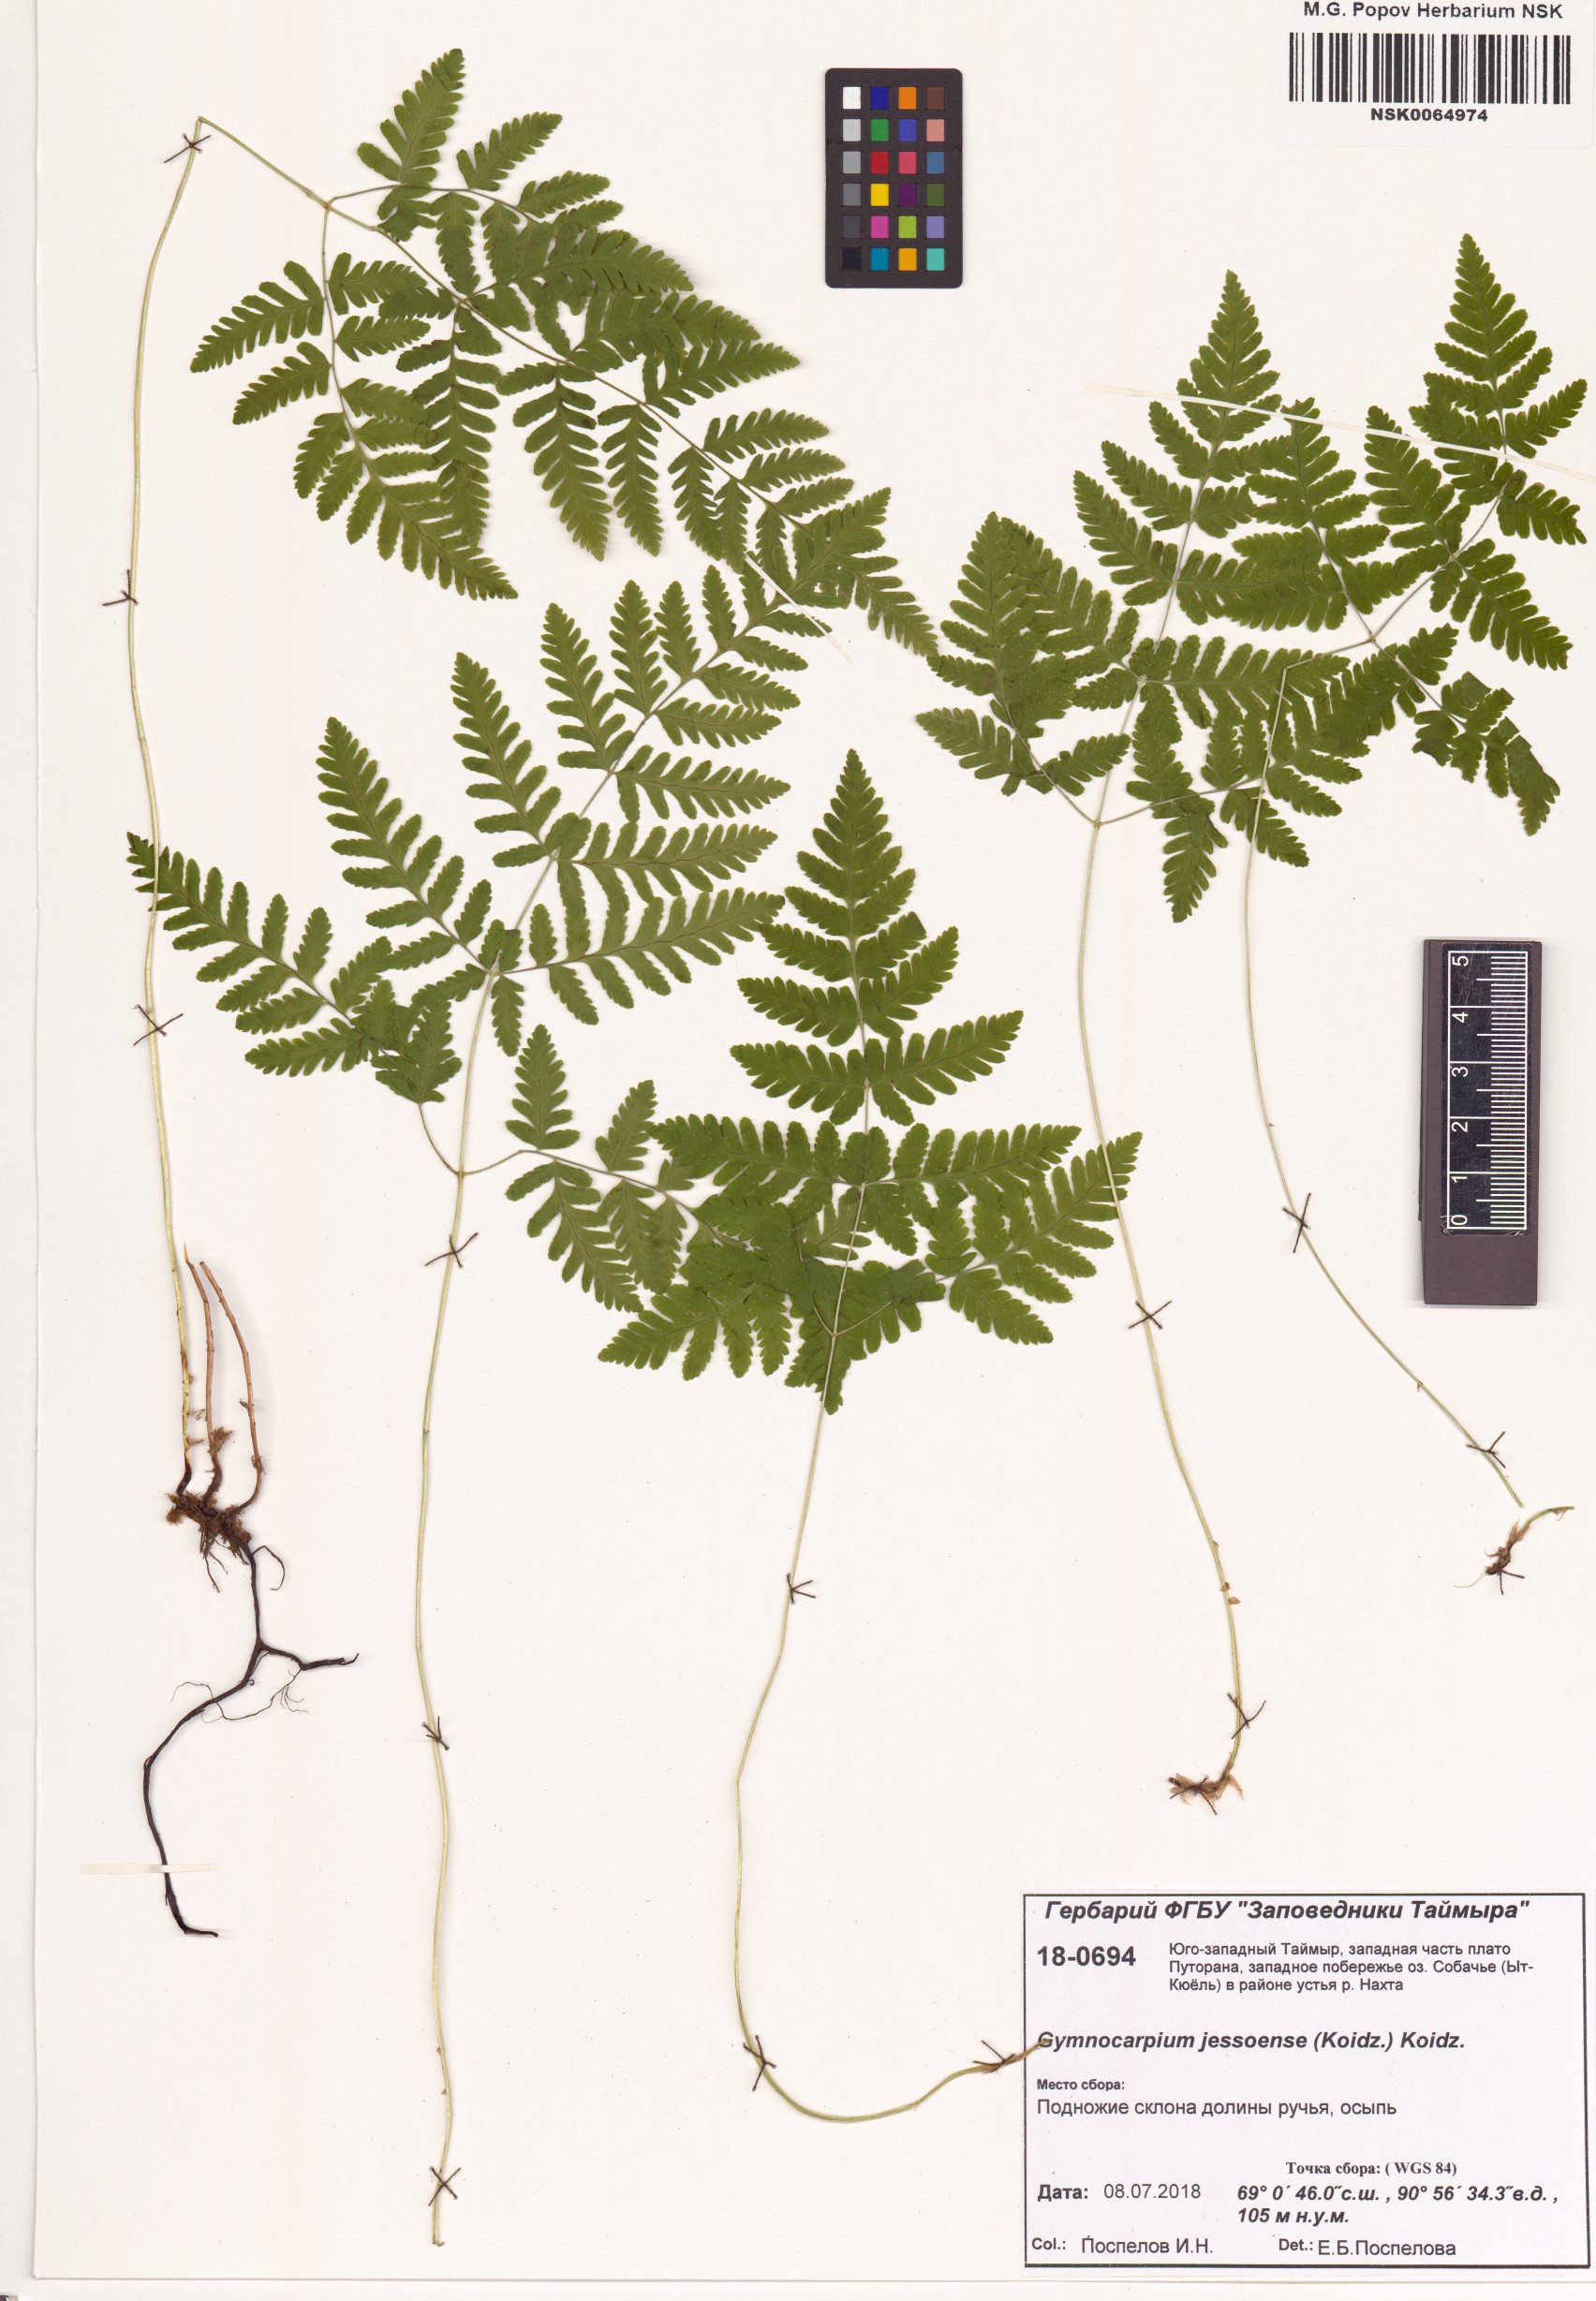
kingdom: Plantae
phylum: Tracheophyta
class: Polypodiopsida
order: Polypodiales
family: Cystopteridaceae
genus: Gymnocarpium
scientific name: Gymnocarpium jessoense
